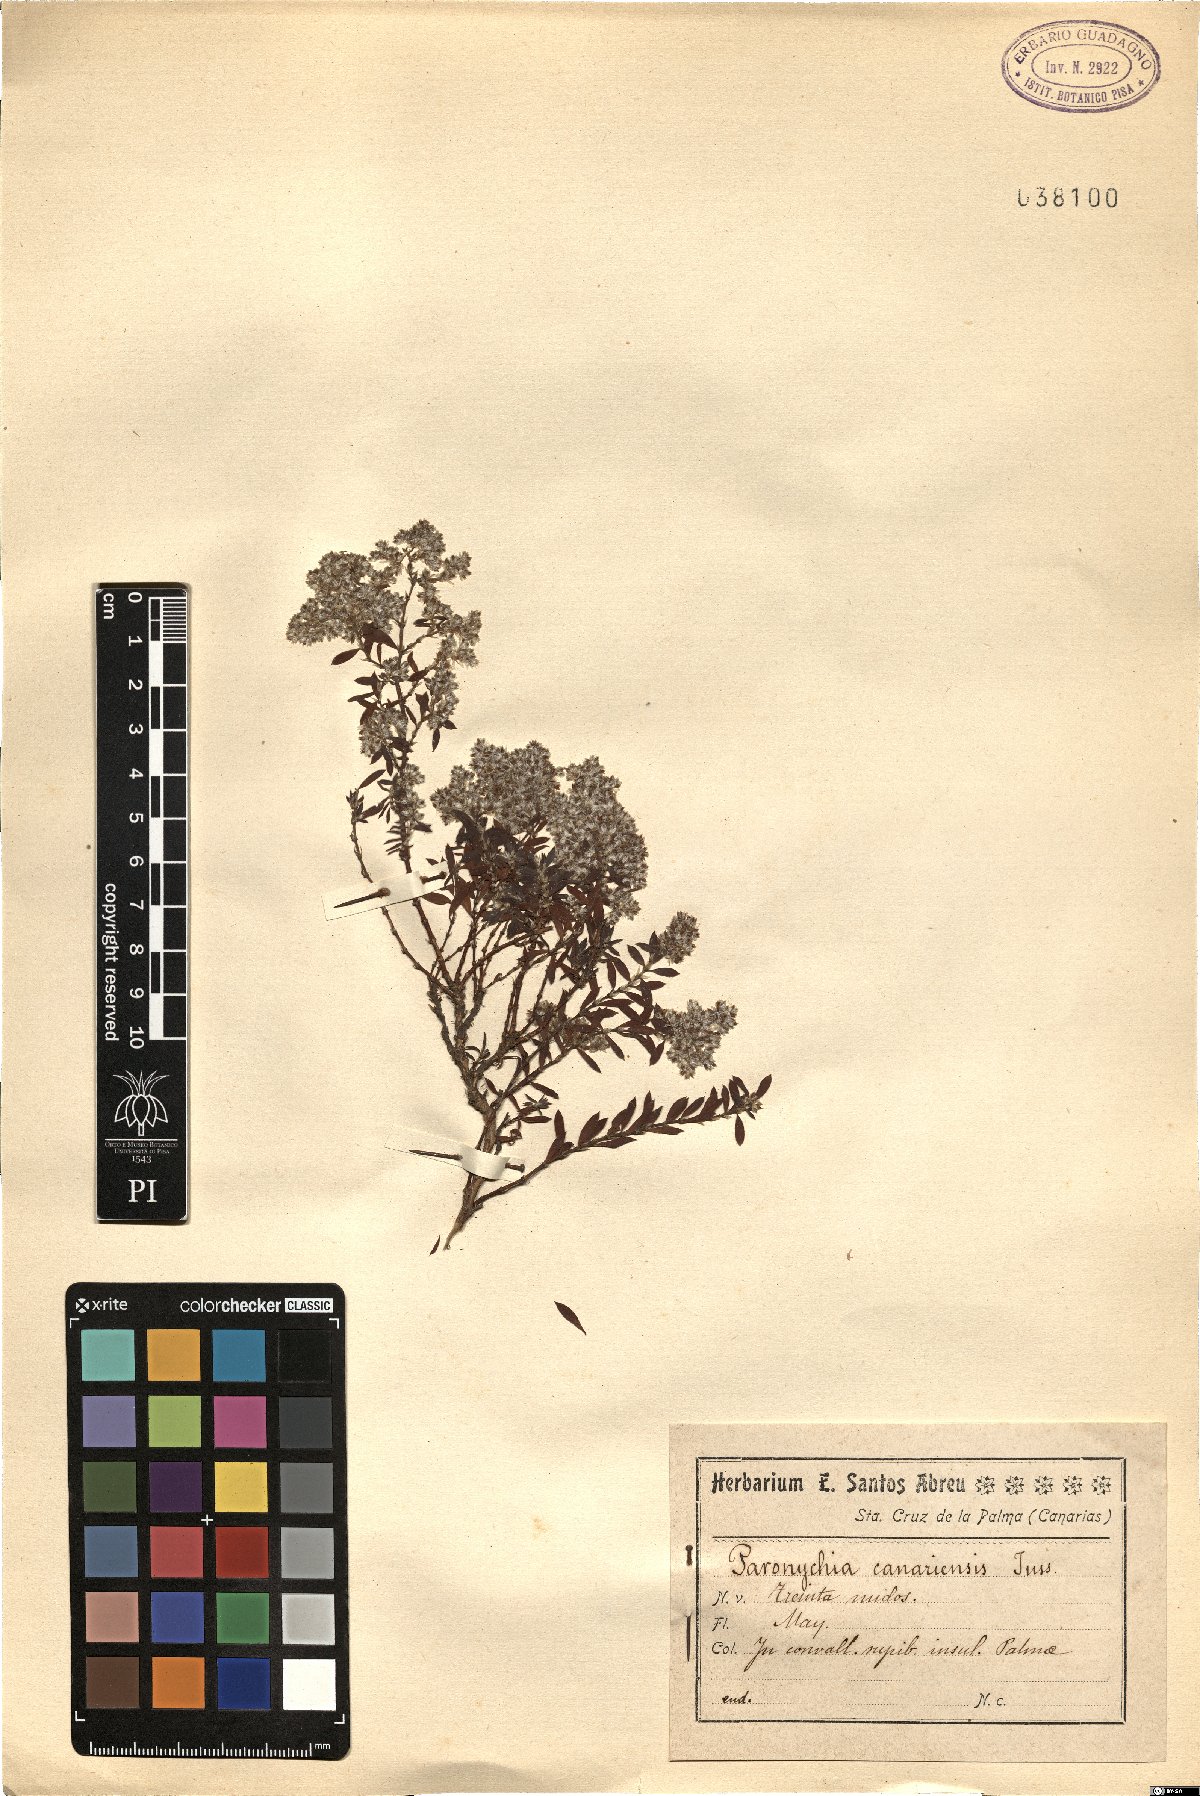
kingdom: Plantae
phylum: Tracheophyta
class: Magnoliopsida
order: Caryophyllales
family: Caryophyllaceae
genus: Paronychia
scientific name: Paronychia canariensis
